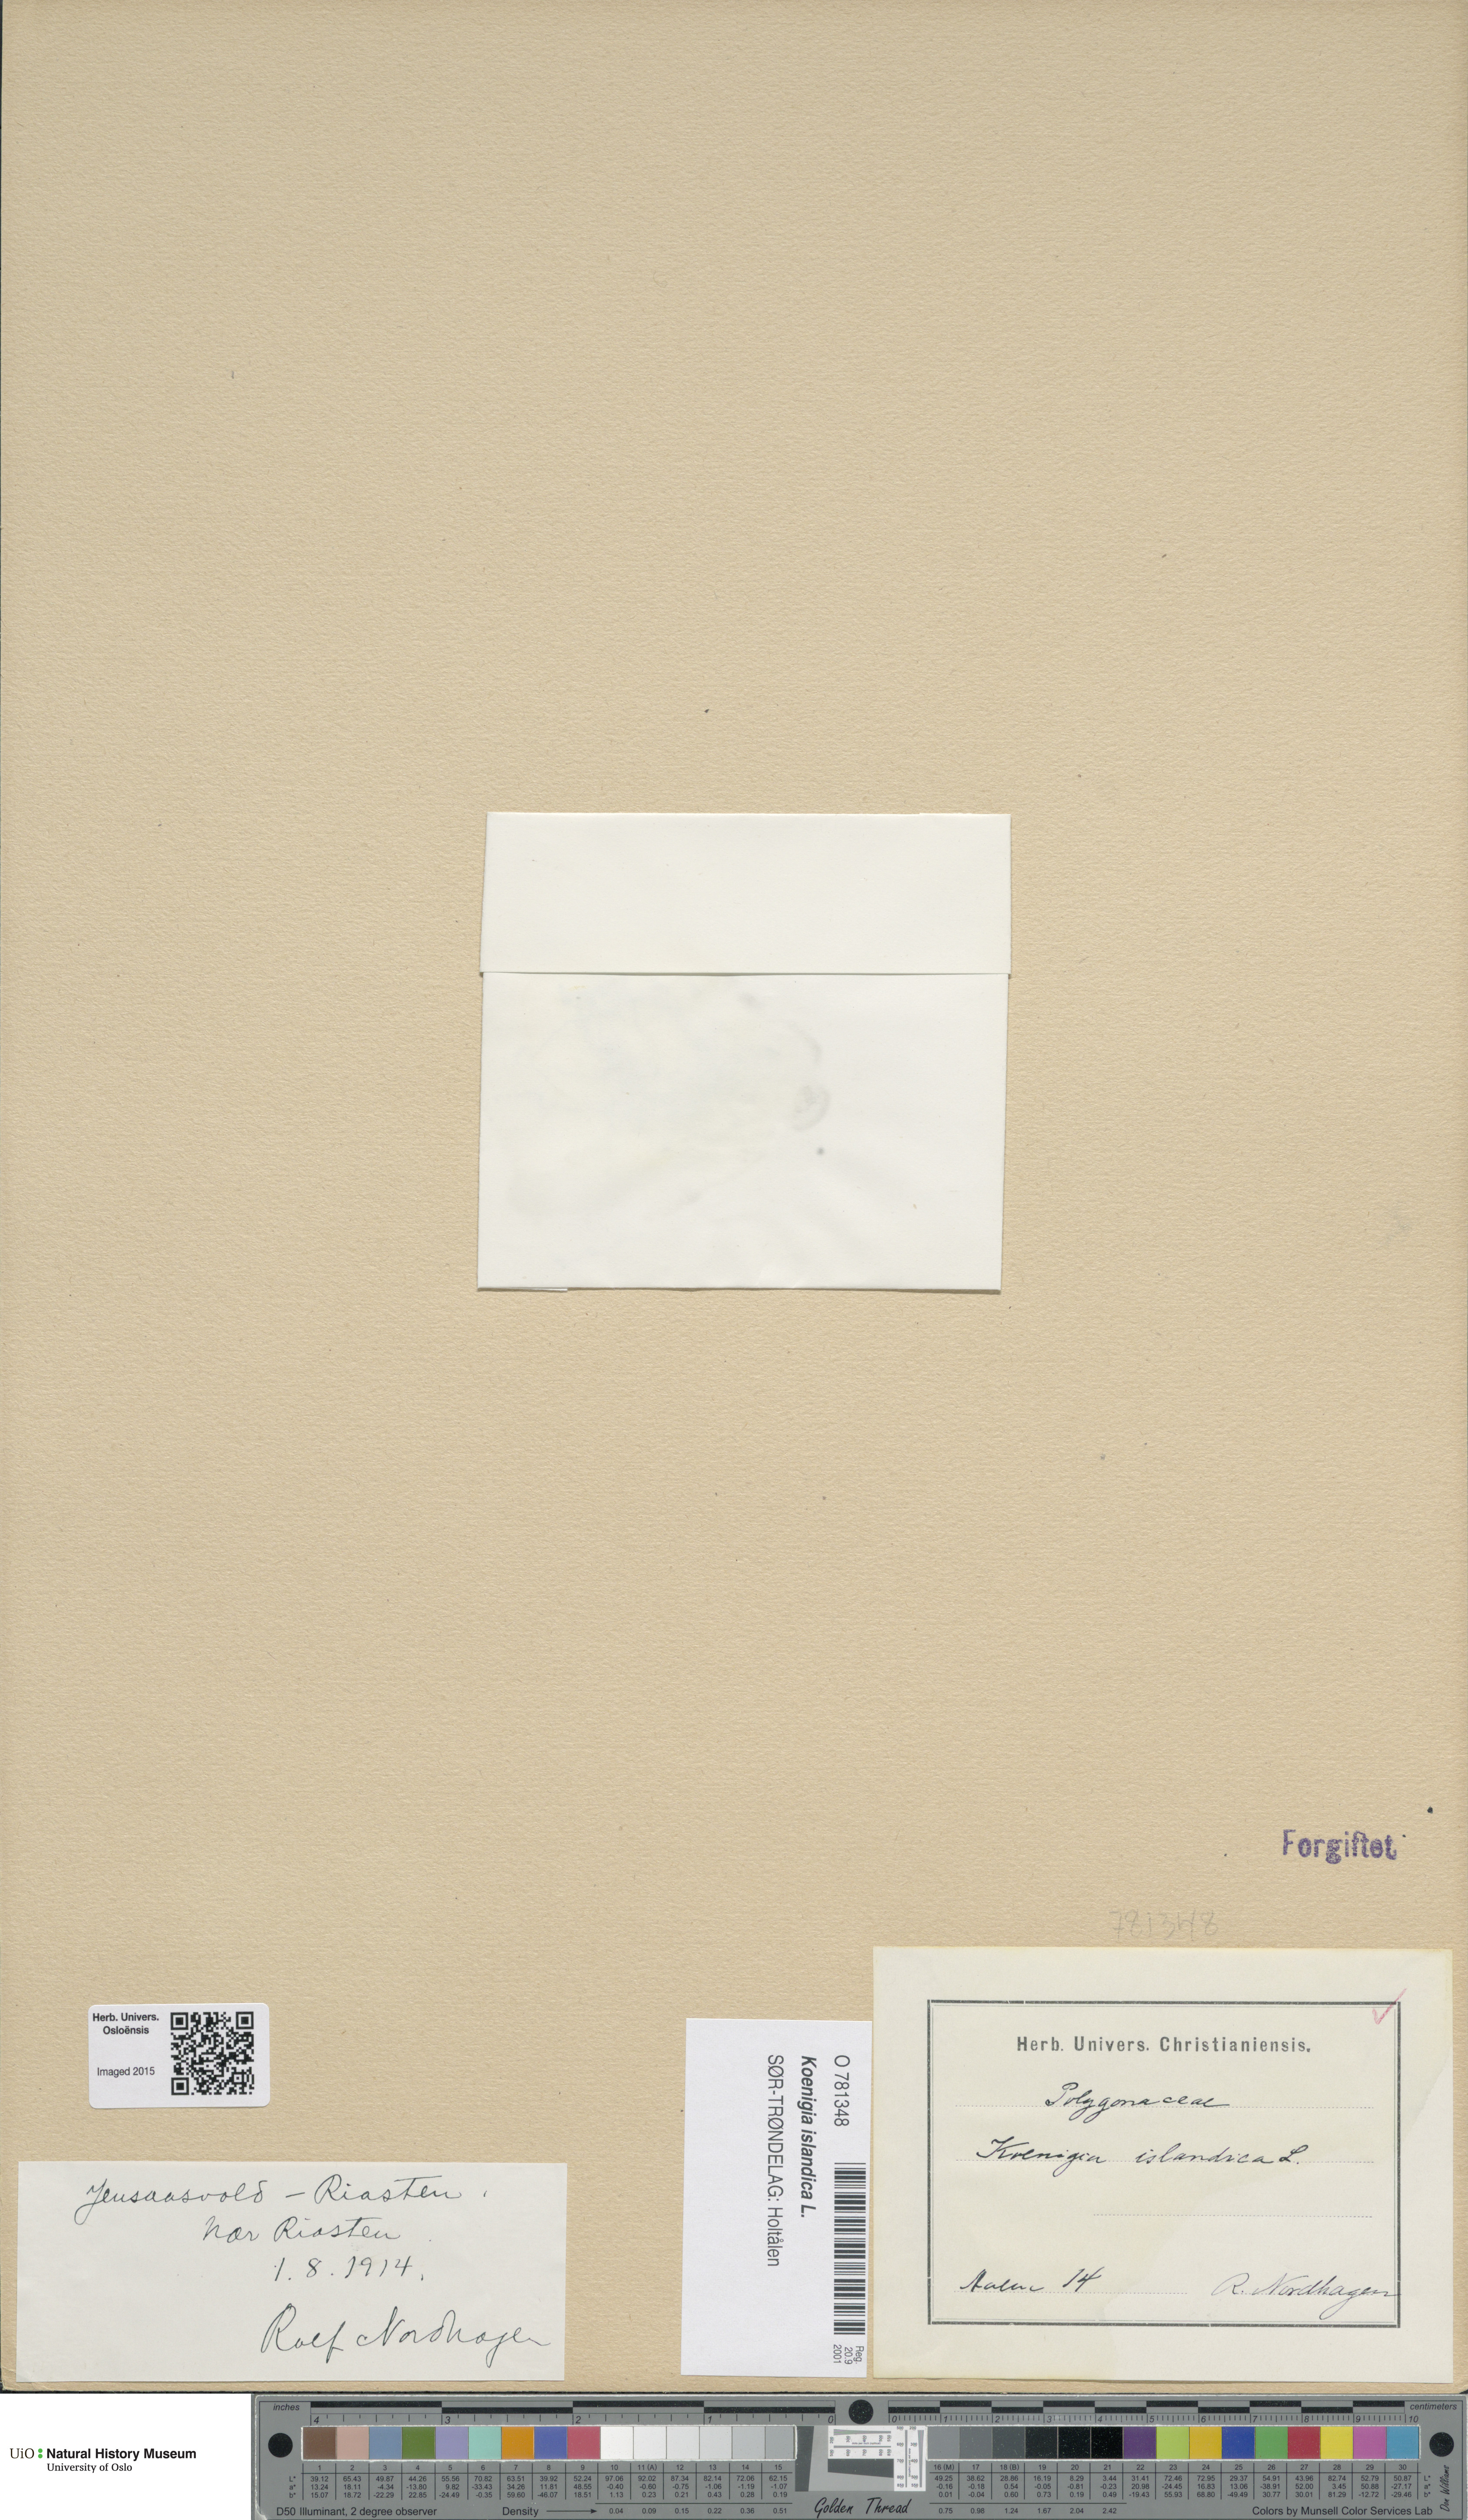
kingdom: Plantae
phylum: Tracheophyta
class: Magnoliopsida
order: Caryophyllales
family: Polygonaceae
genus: Koenigia
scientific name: Koenigia islandica
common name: Iceland-purslane
